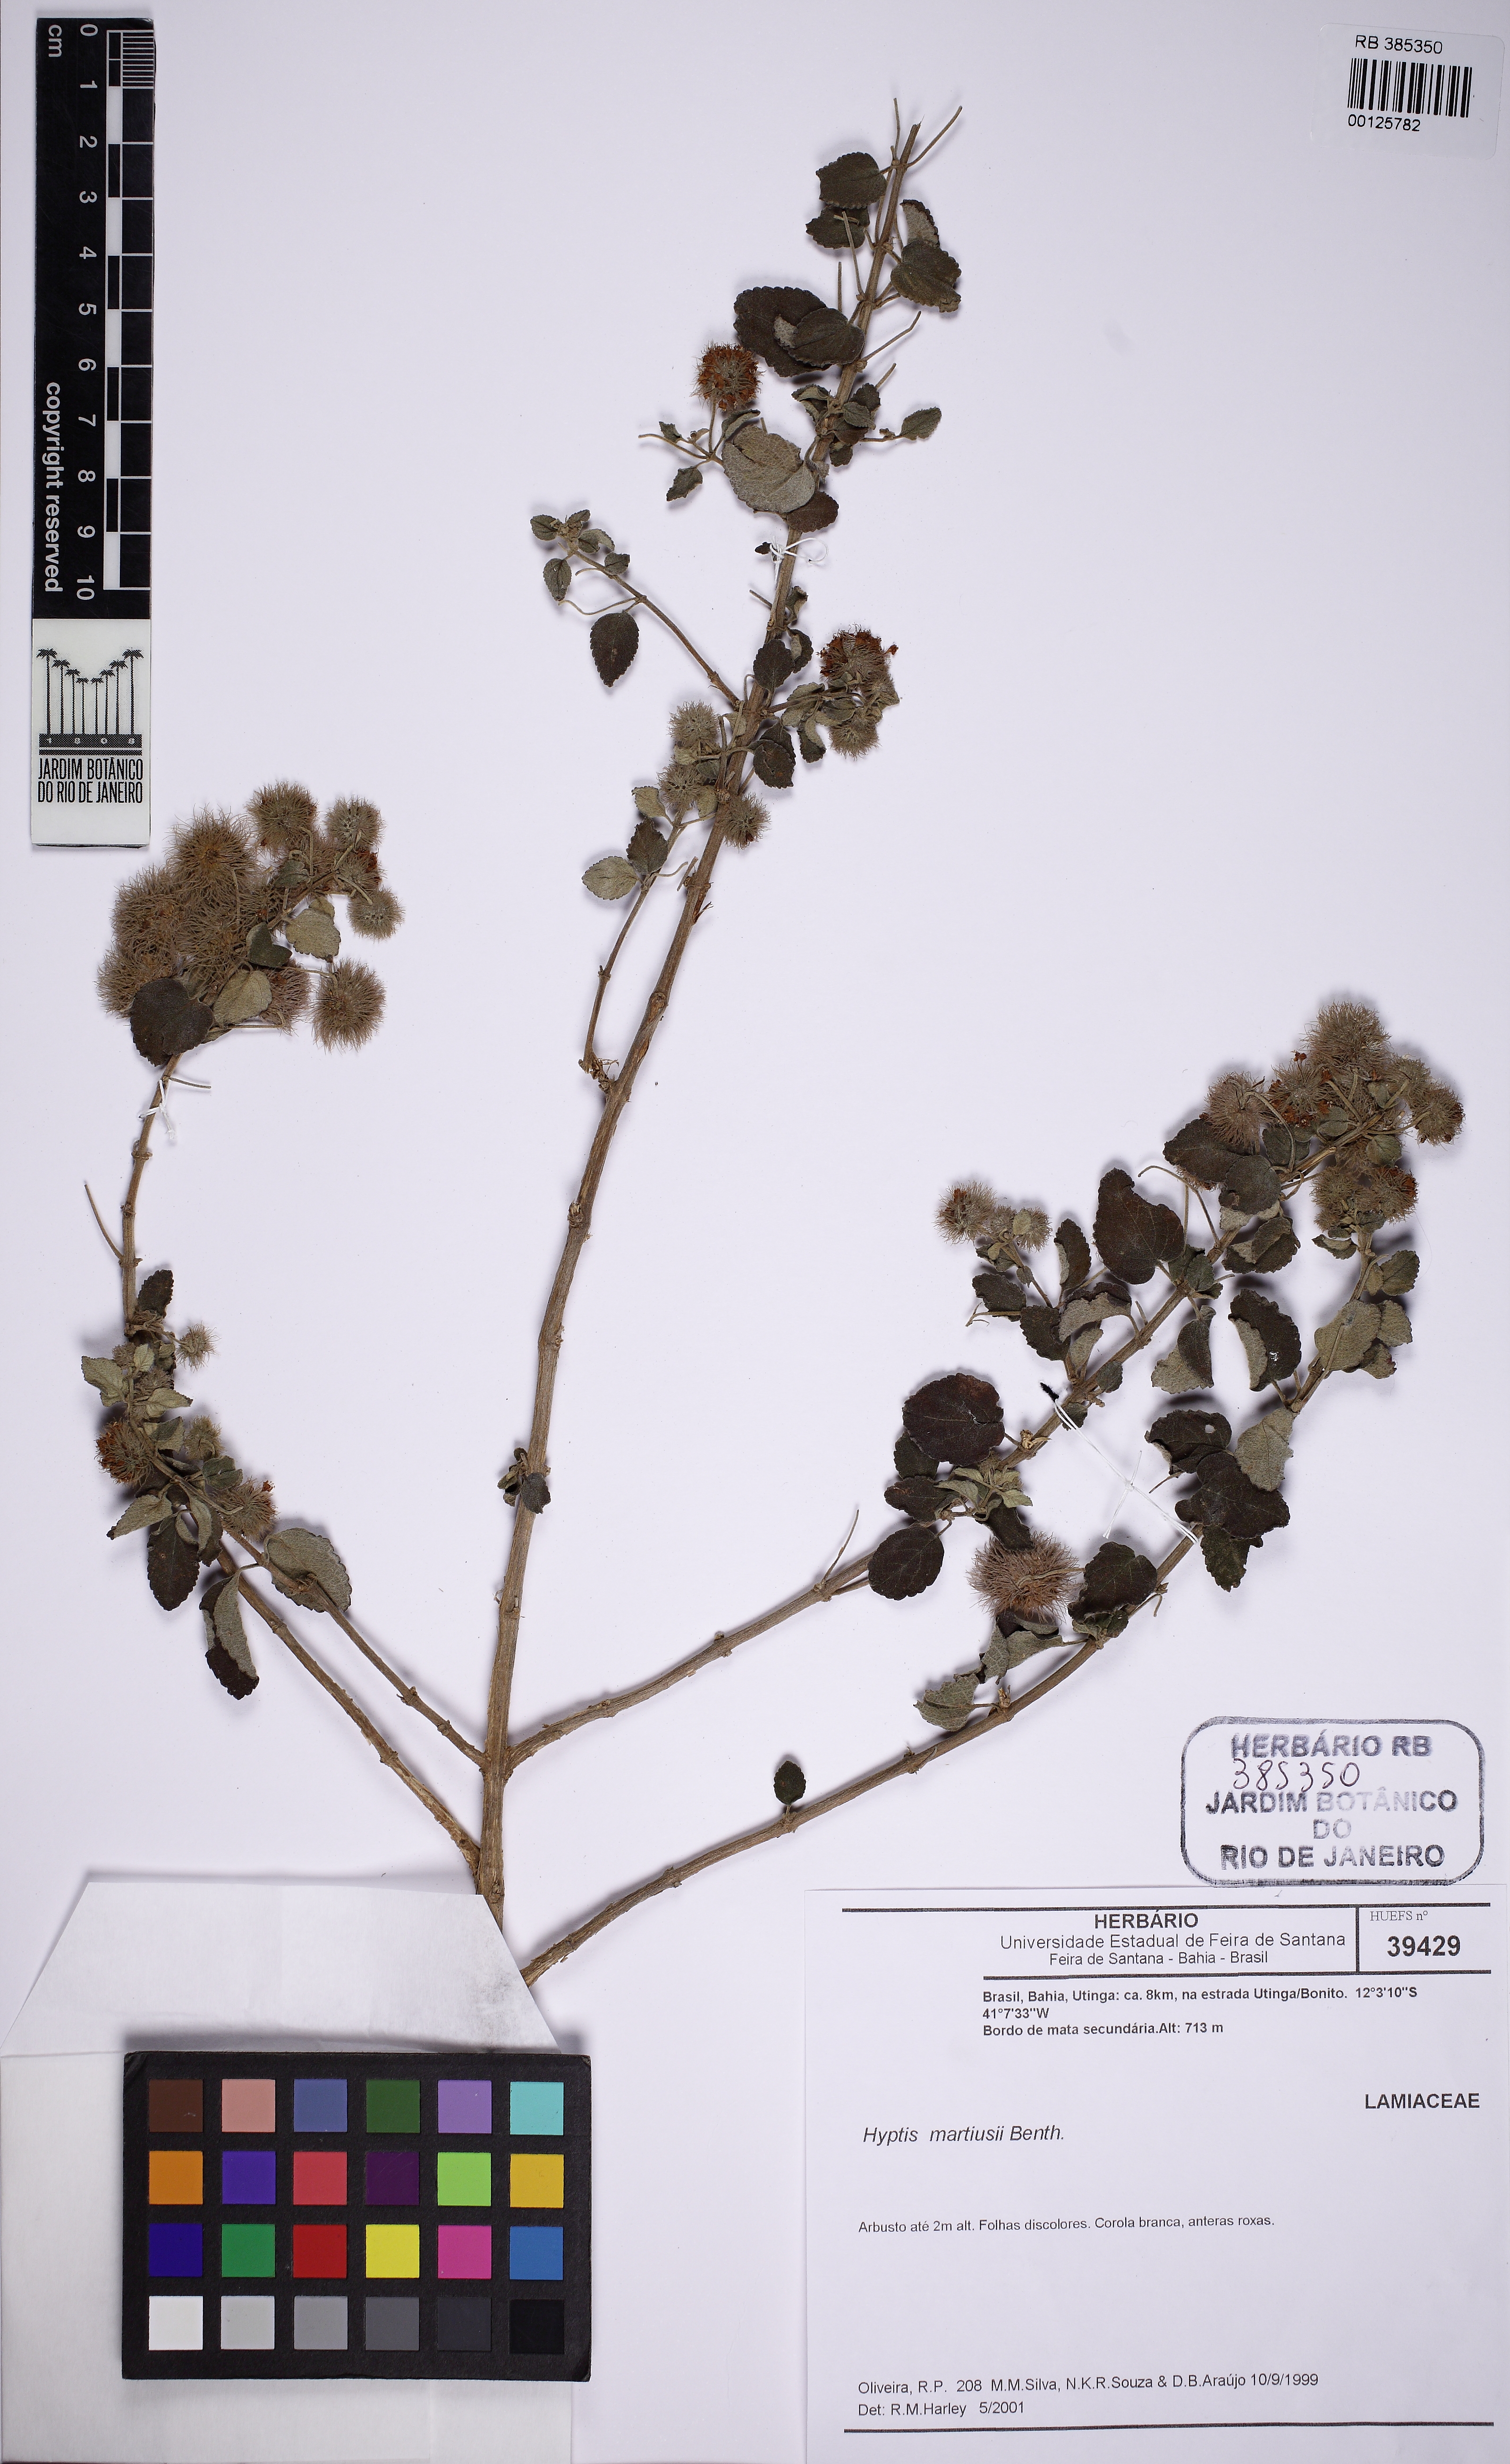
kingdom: Plantae
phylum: Tracheophyta
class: Magnoliopsida
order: Lamiales
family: Lamiaceae
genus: Medusantha
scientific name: Medusantha martiusii
